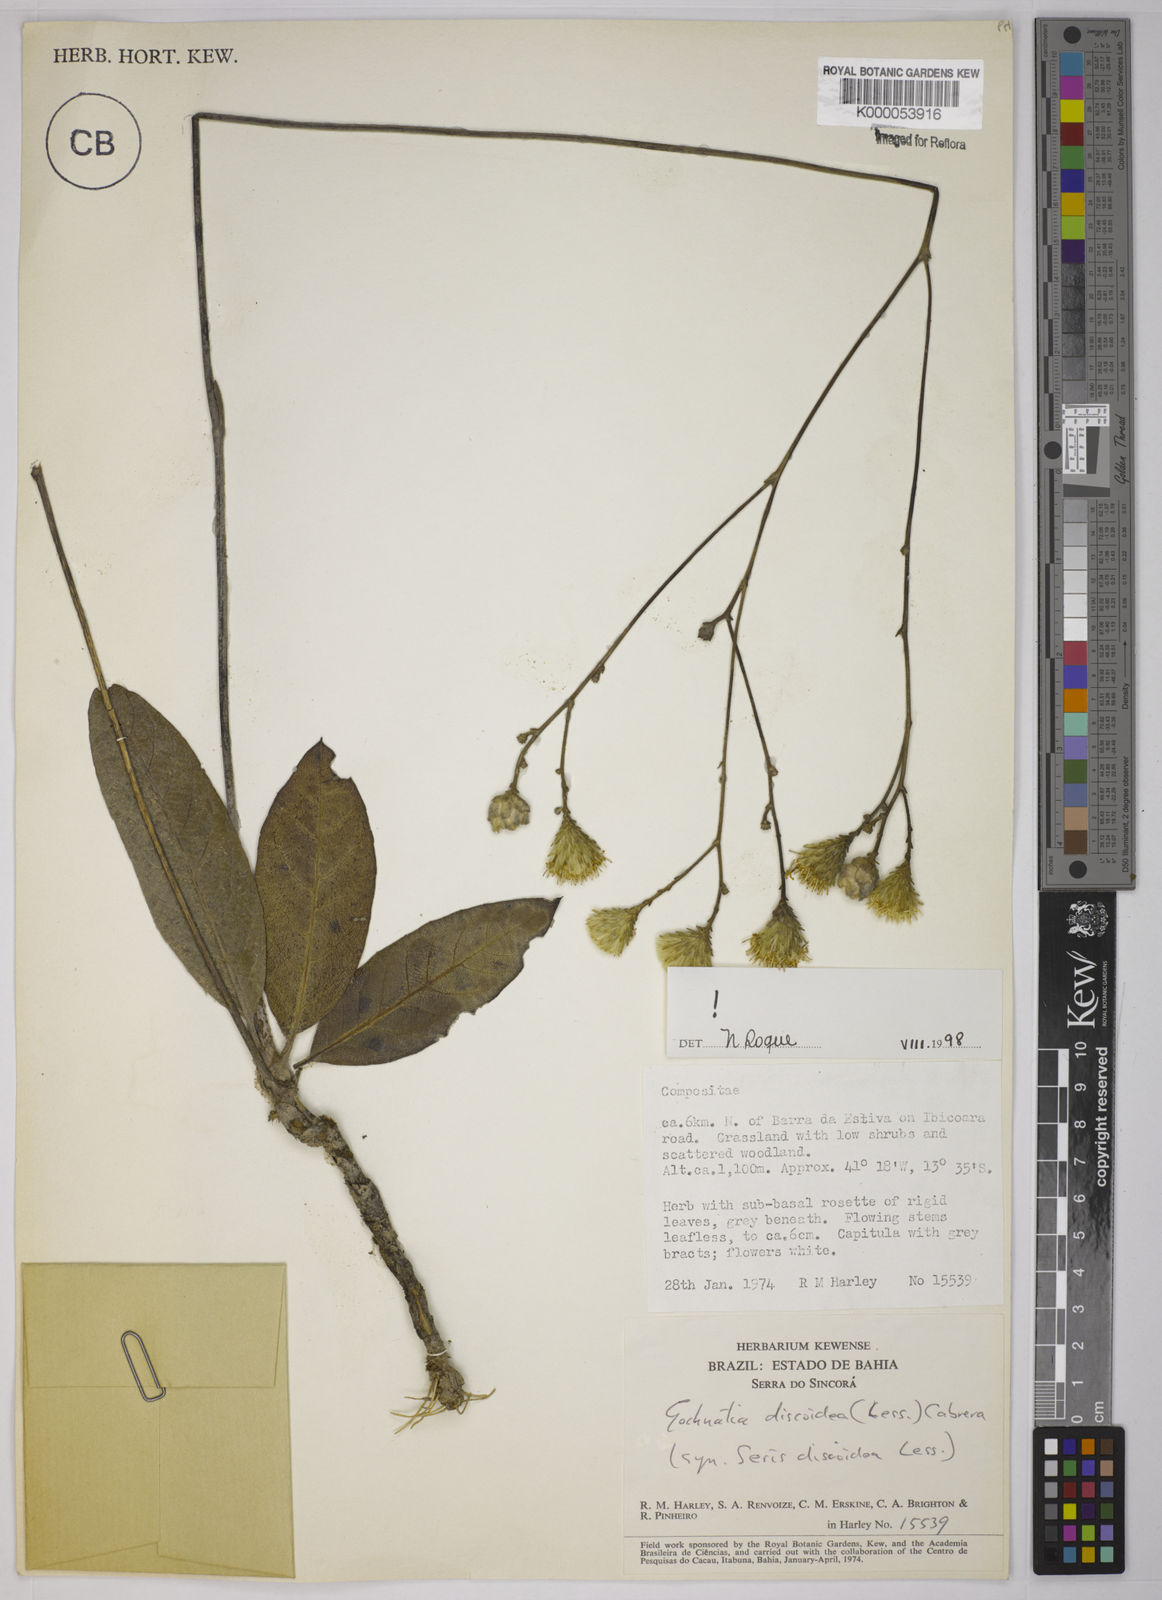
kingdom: Plantae
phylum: Tracheophyta
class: Magnoliopsida
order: Asterales
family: Asteraceae
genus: Richterago
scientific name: Richterago discoidea
